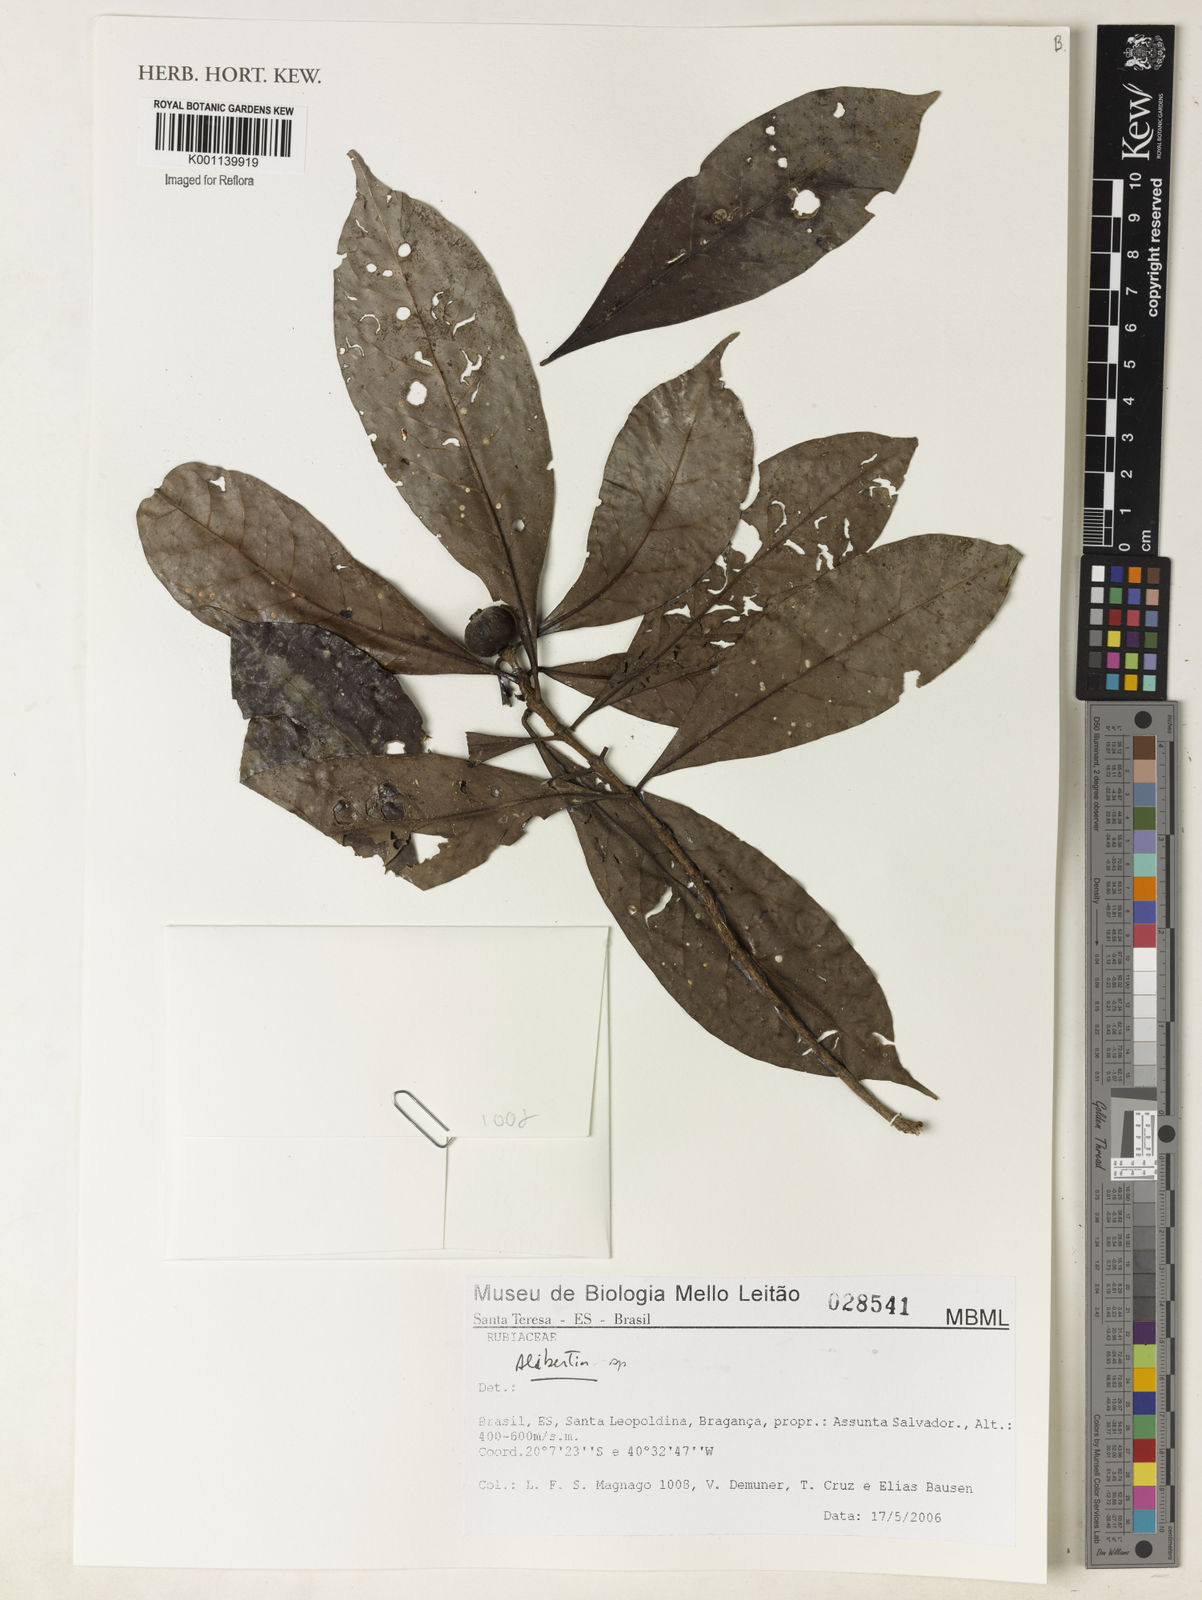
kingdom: Plantae
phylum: Tracheophyta
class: Magnoliopsida
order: Gentianales
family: Rubiaceae
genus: Alibertia
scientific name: Alibertia
